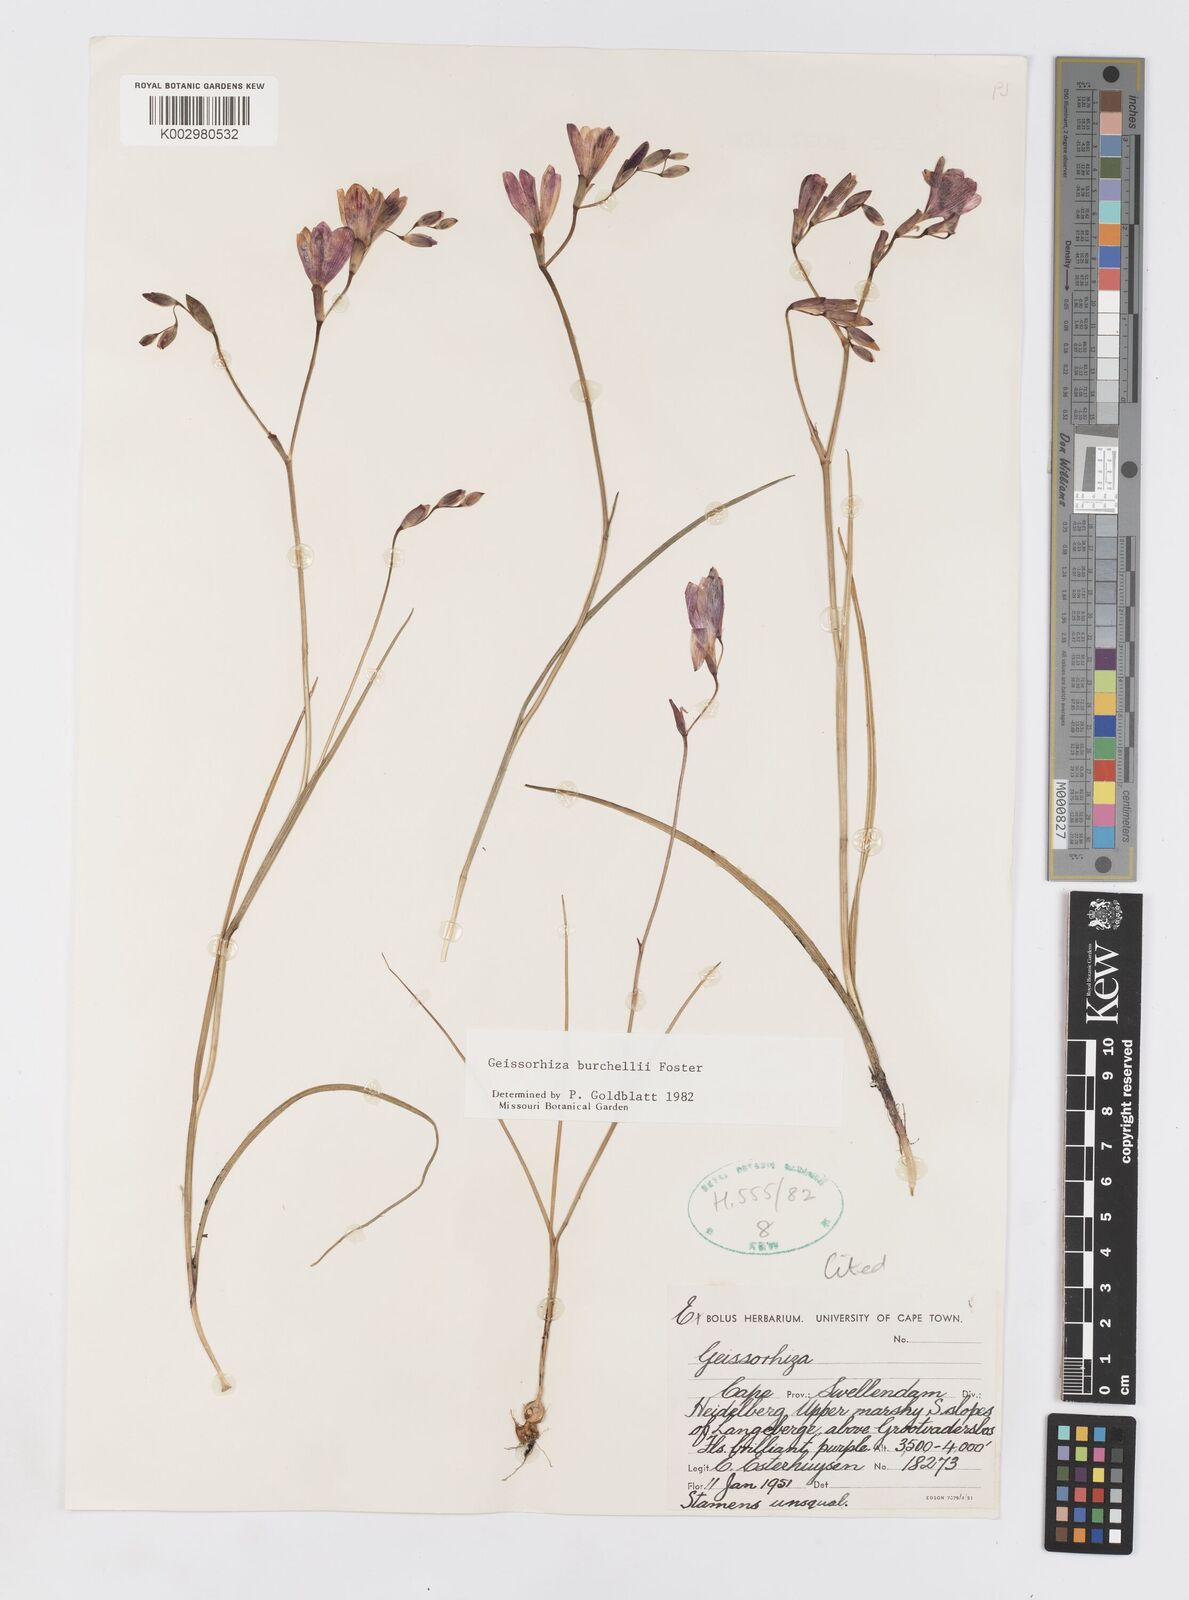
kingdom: Plantae
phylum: Tracheophyta
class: Liliopsida
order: Asparagales
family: Iridaceae
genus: Geissorhiza
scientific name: Geissorhiza burchellii
